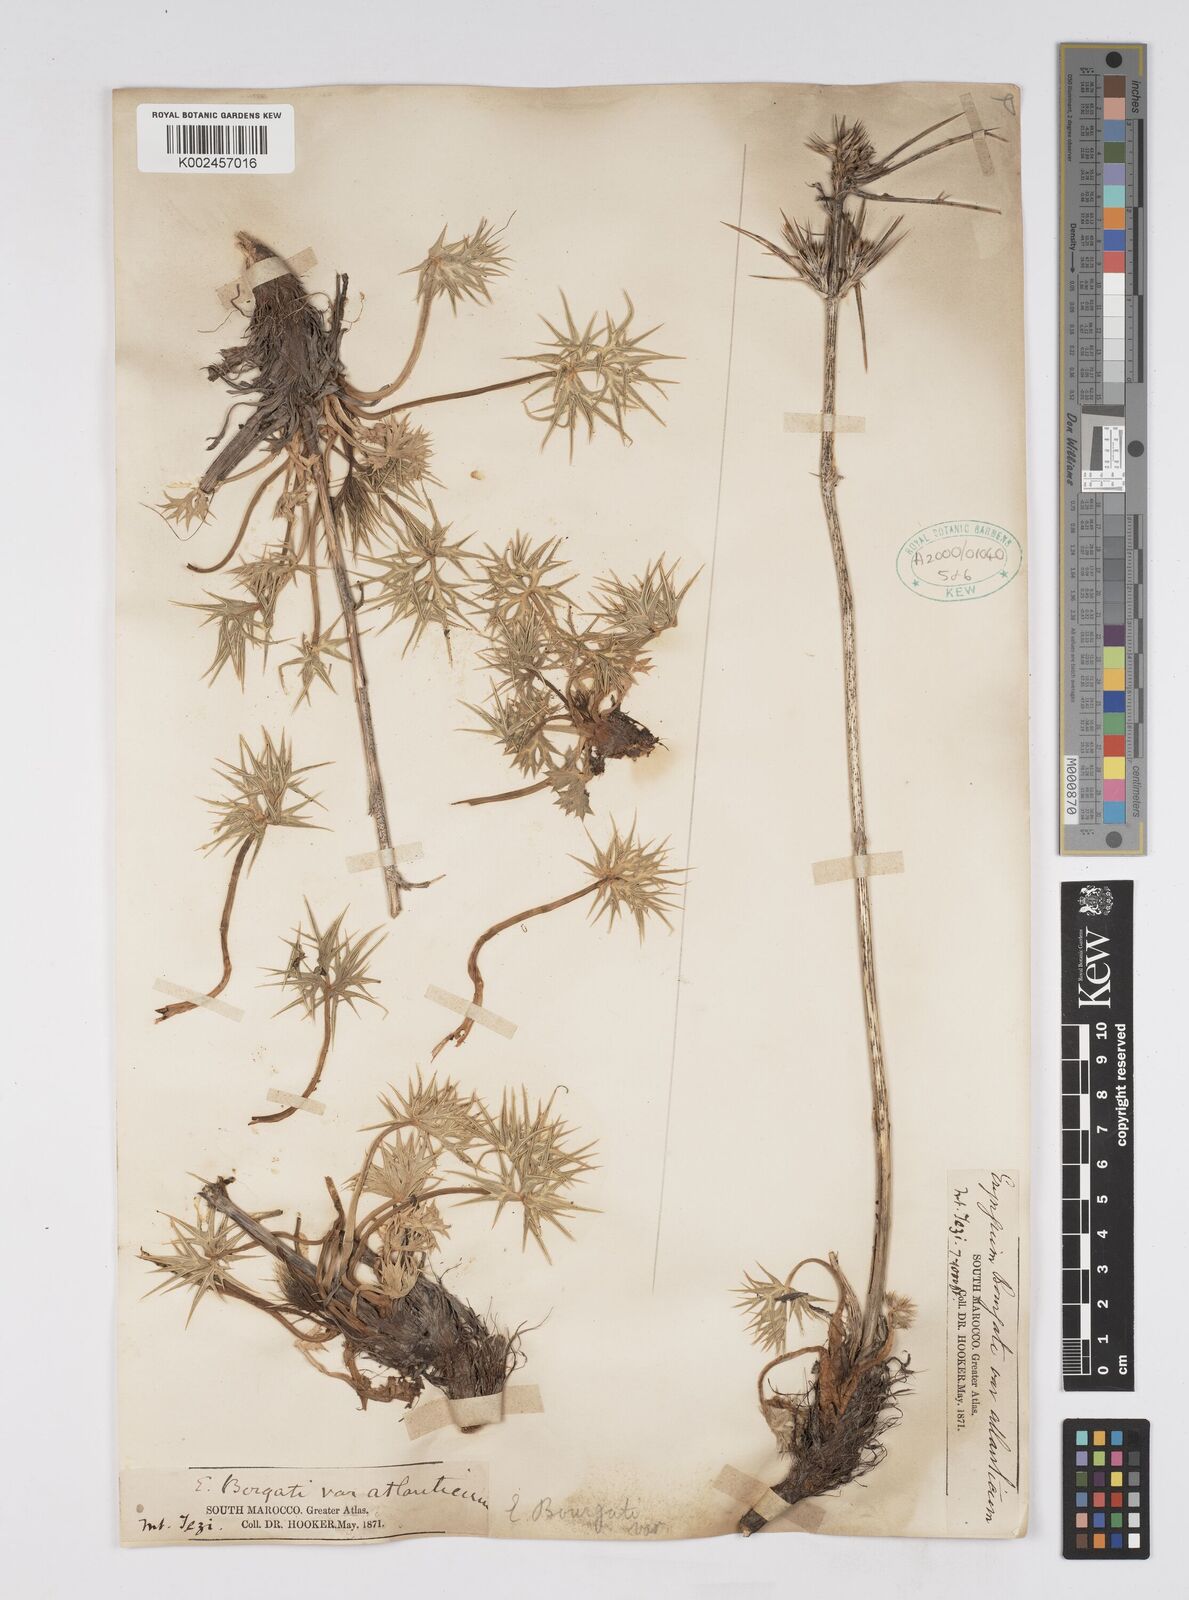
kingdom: Plantae
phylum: Tracheophyta
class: Magnoliopsida
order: Apiales
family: Apiaceae
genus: Eryngium
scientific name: Eryngium bourgatii
